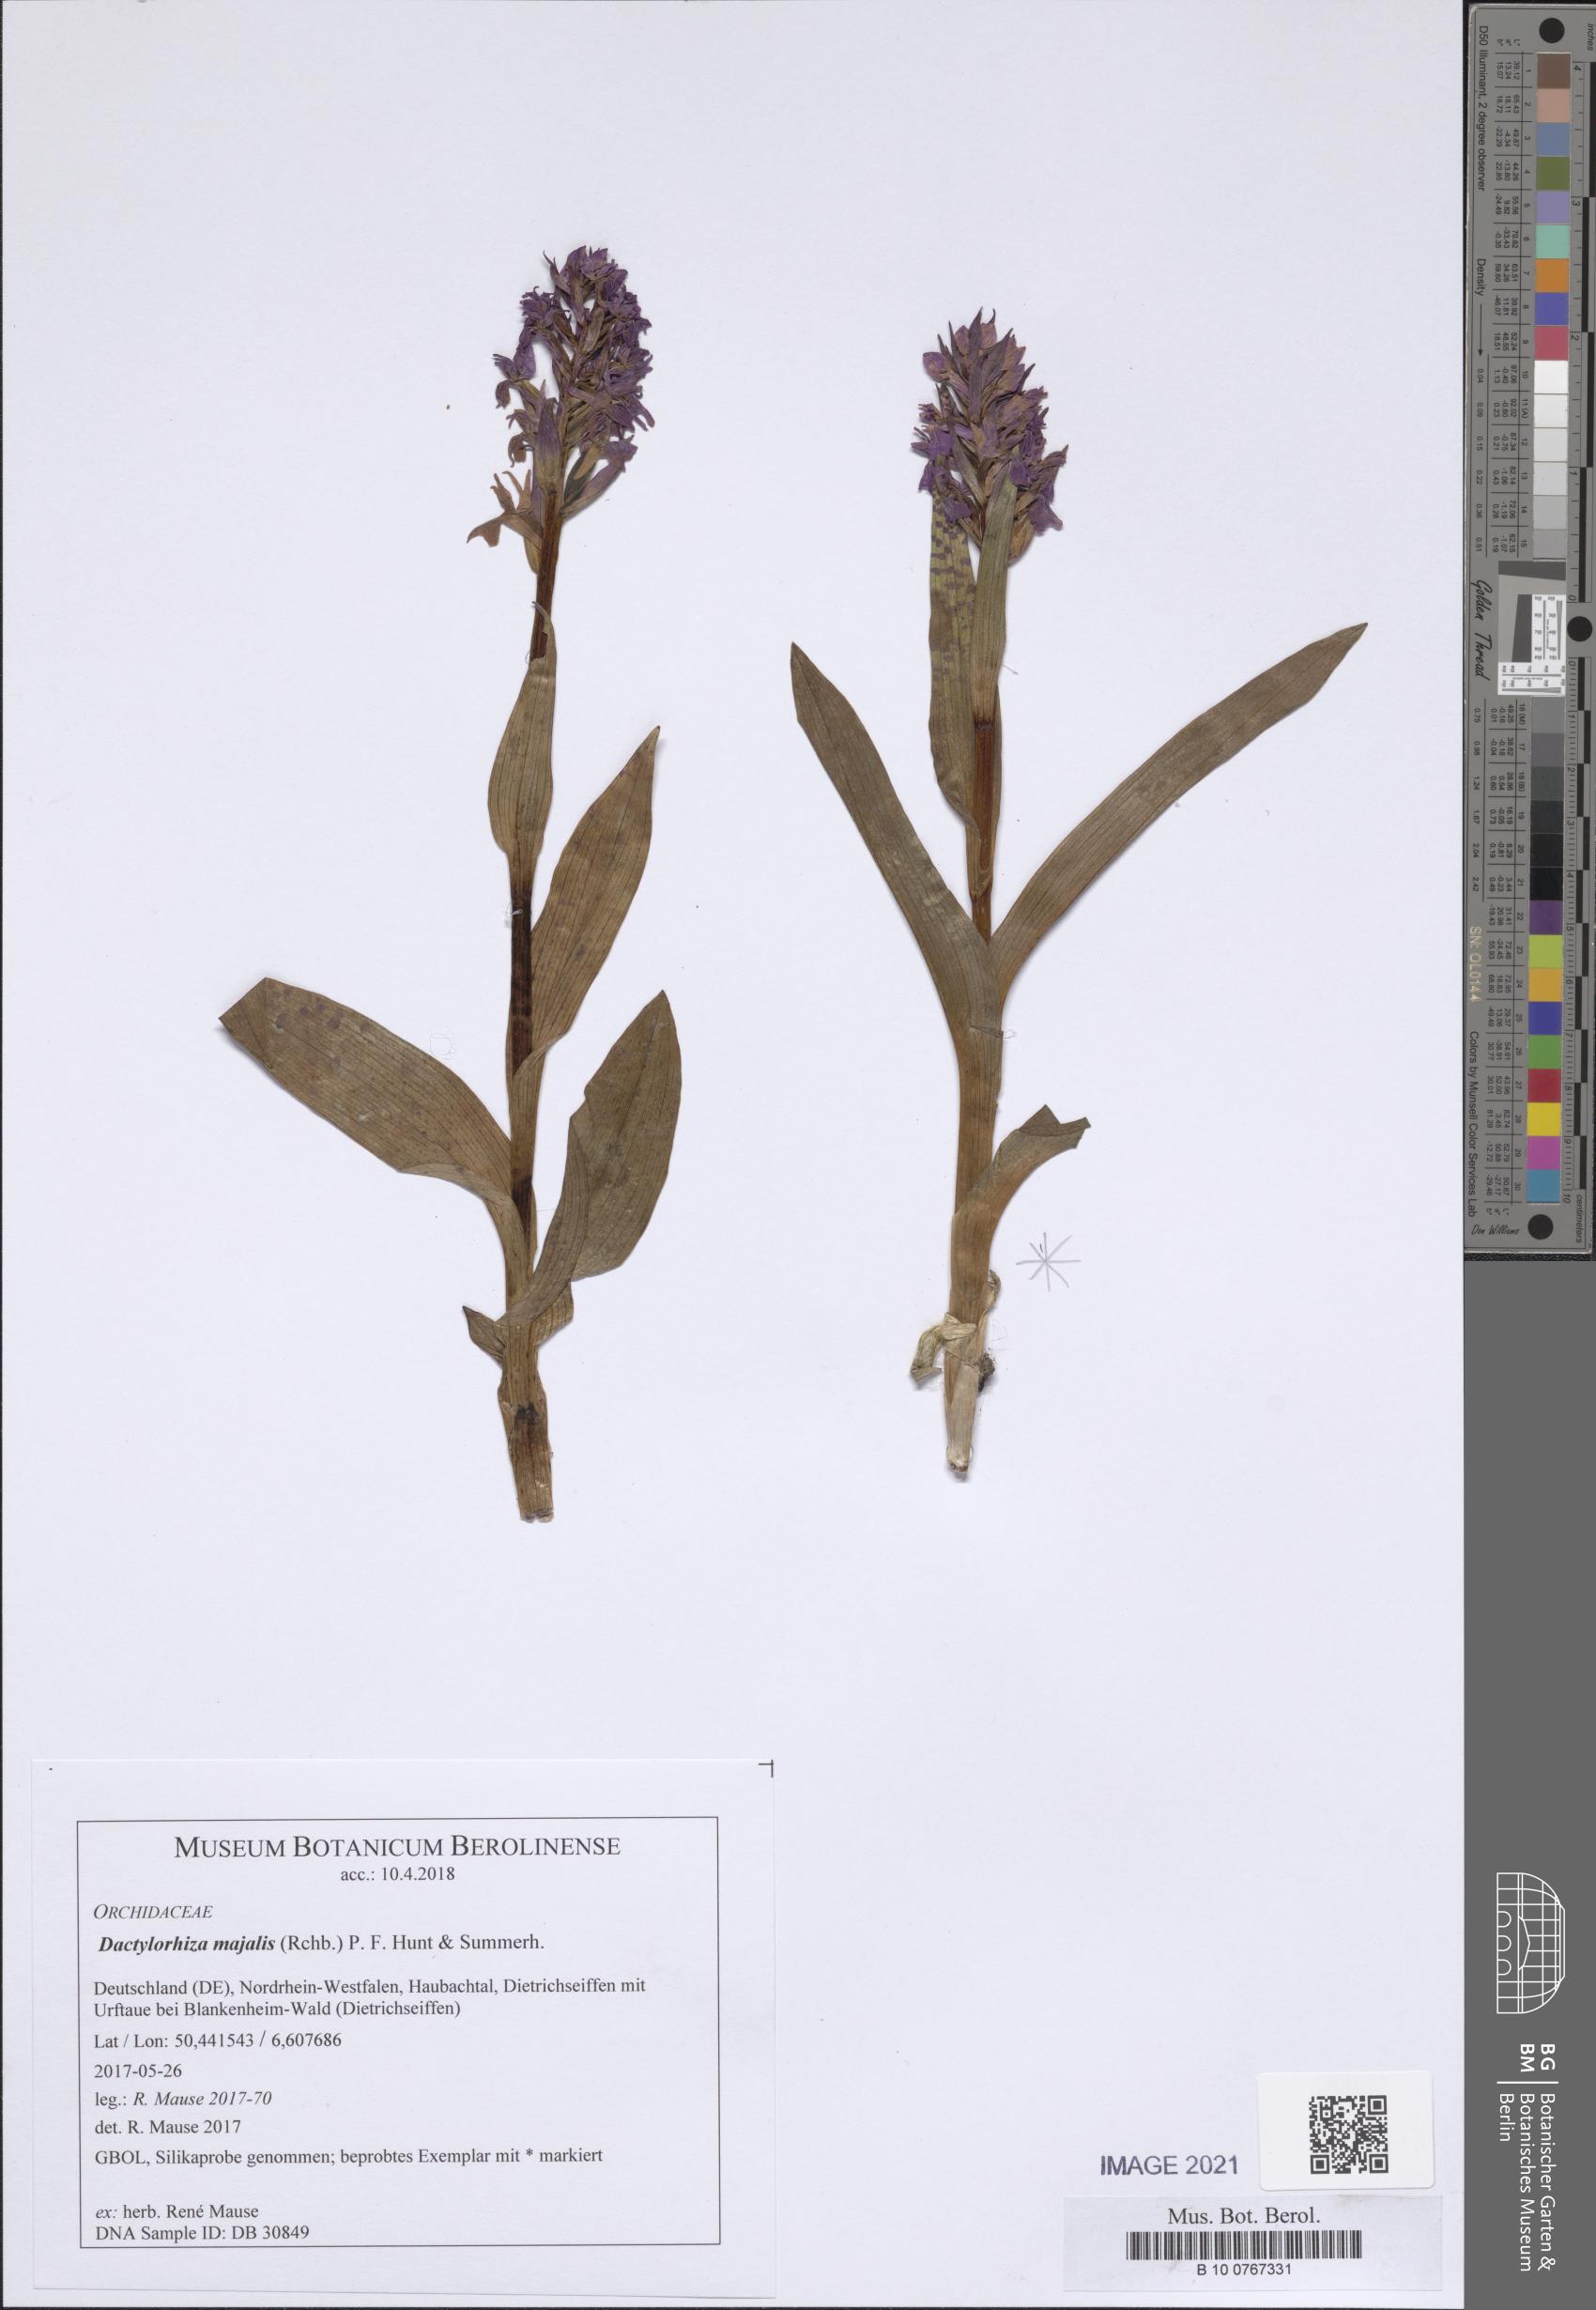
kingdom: Plantae
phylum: Tracheophyta
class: Liliopsida
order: Asparagales
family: Orchidaceae
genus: Dactylorhiza
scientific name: Dactylorhiza majalis
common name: Marsh orchid
